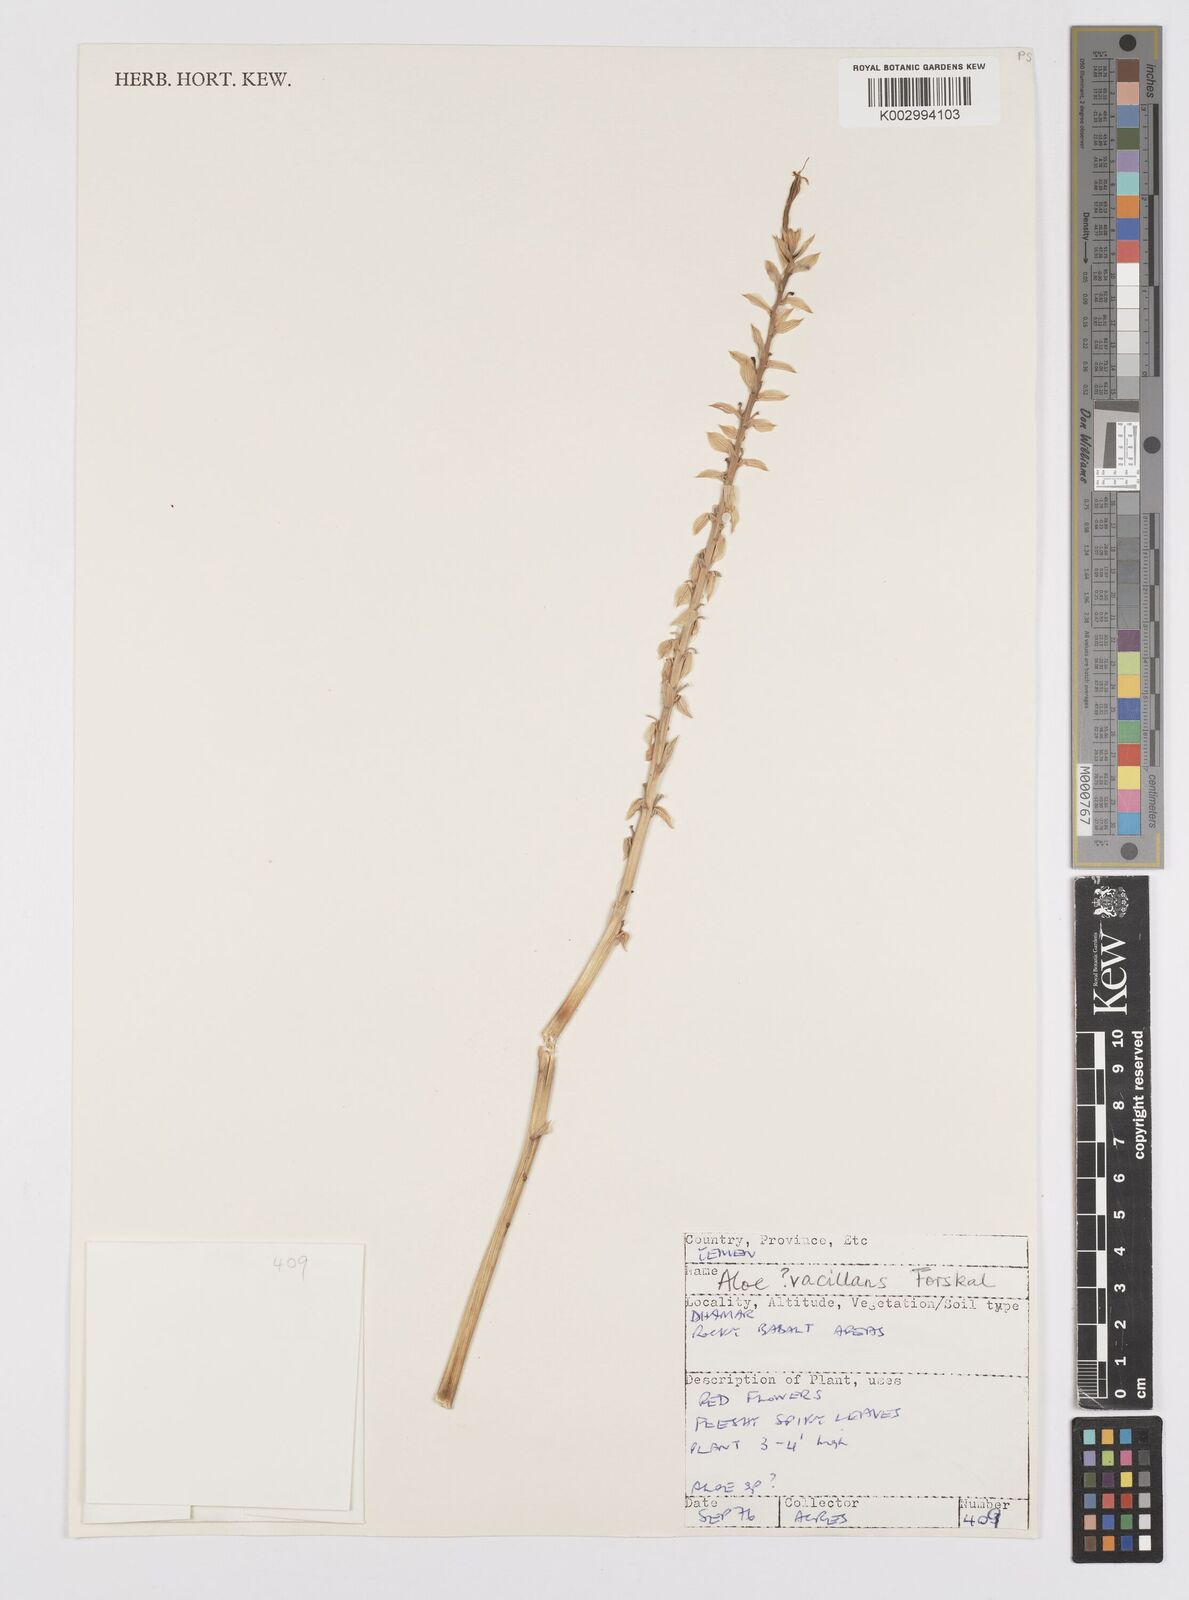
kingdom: Plantae
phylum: Tracheophyta
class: Liliopsida
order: Asparagales
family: Asphodelaceae
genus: Aloe
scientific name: Aloe vacillans
